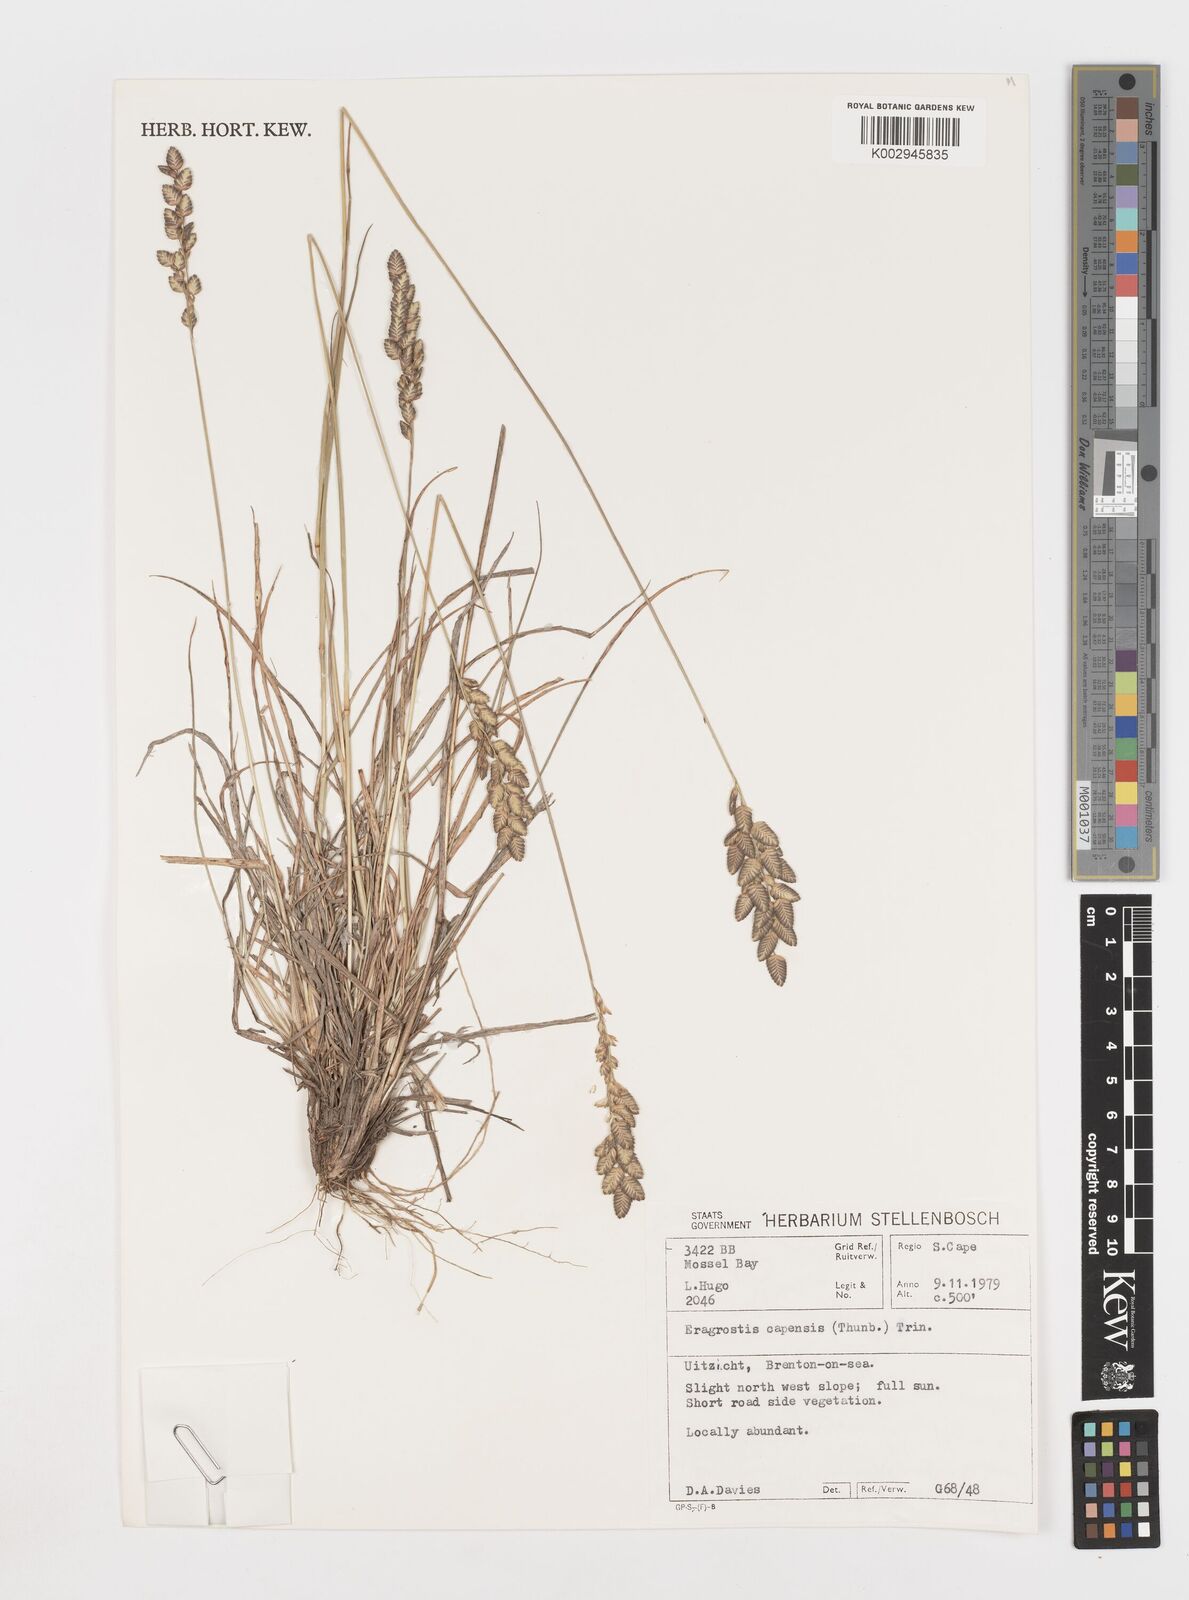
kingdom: Plantae
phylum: Tracheophyta
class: Liliopsida
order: Poales
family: Poaceae
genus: Eragrostis
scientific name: Eragrostis capensis
